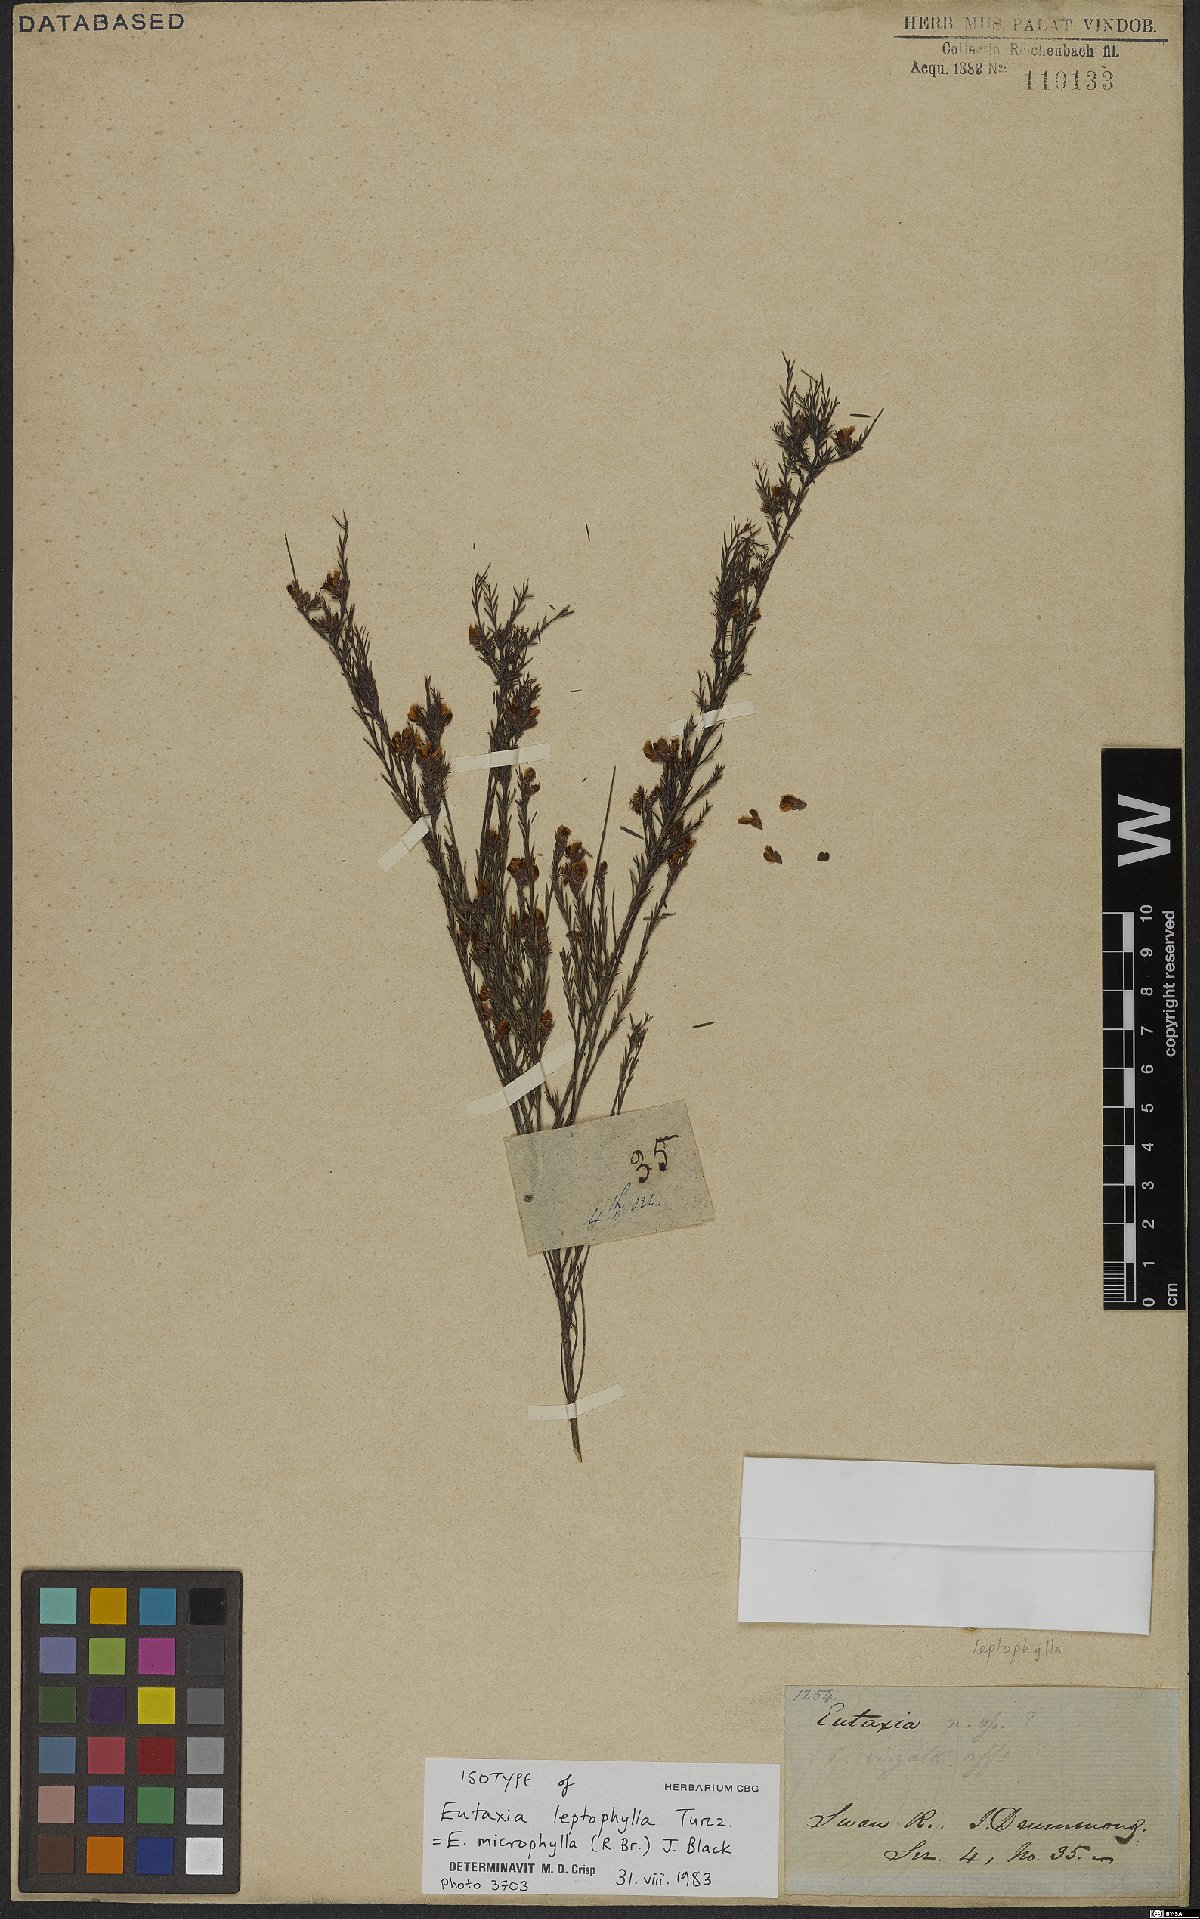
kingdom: Plantae
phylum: Tracheophyta
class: Magnoliopsida
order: Fabales
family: Fabaceae
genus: Eutaxia
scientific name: Eutaxia microphylla
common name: Mallee bush-pea
